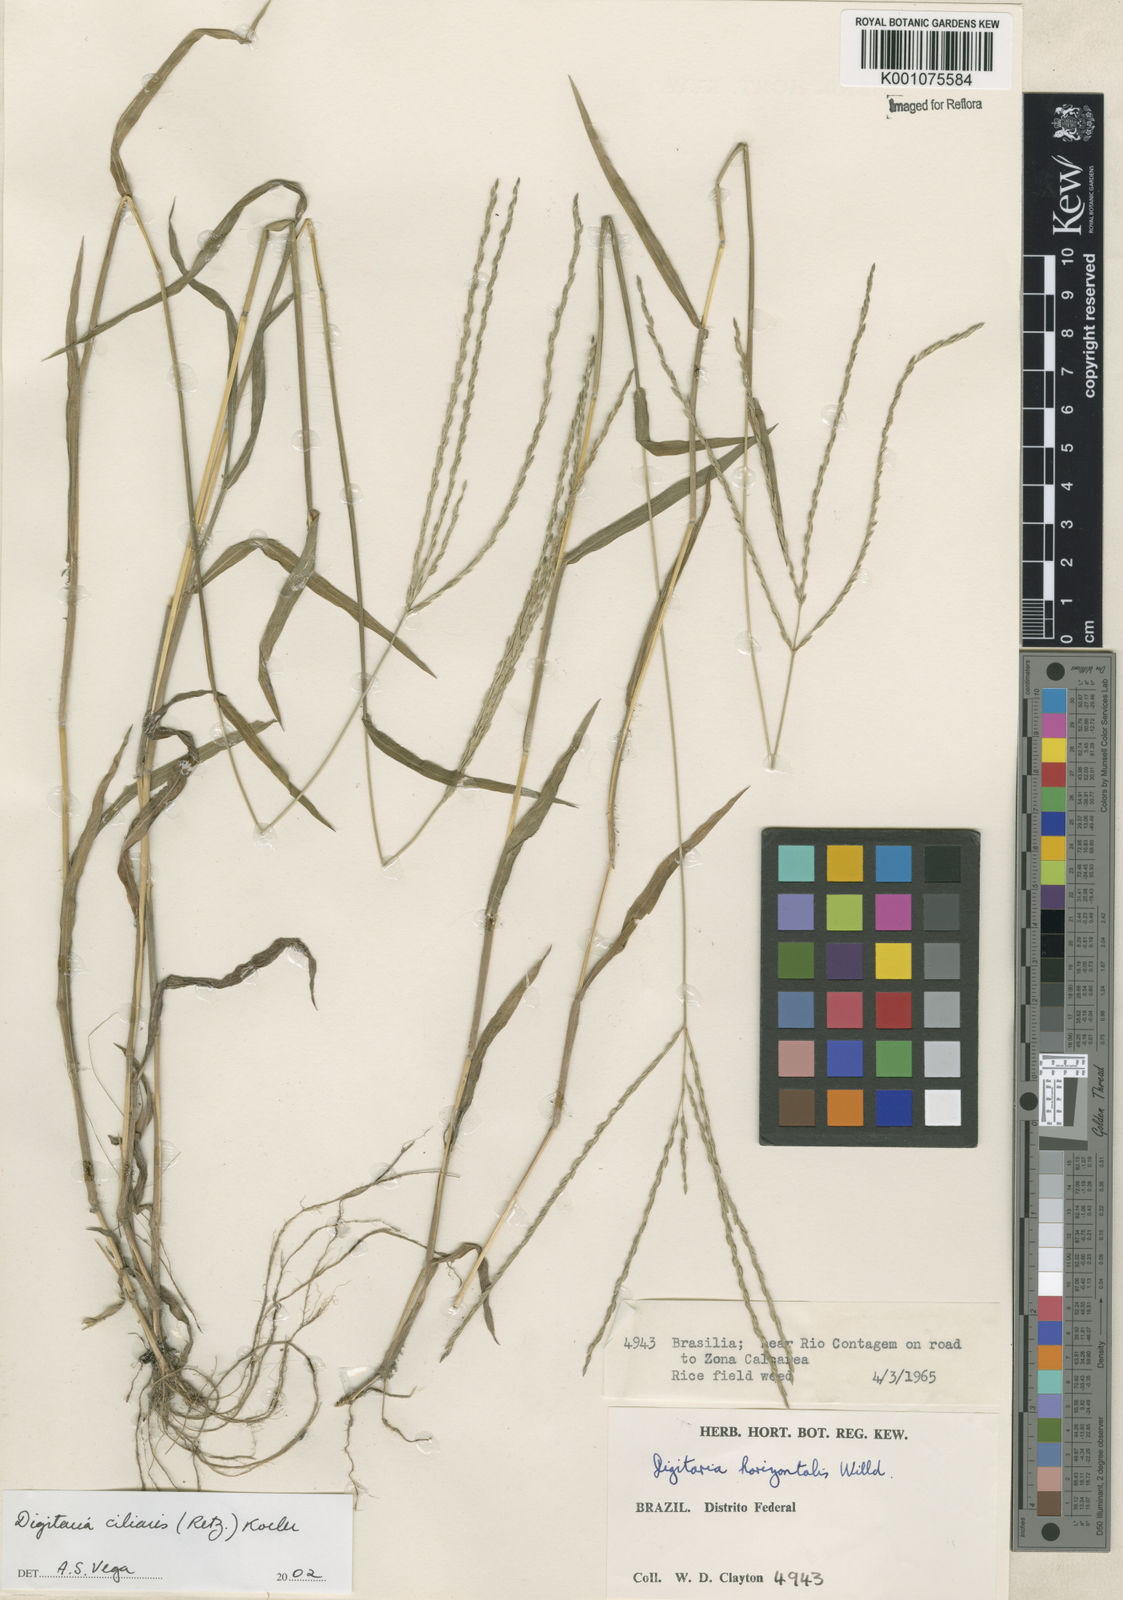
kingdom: Plantae
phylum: Tracheophyta
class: Liliopsida
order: Poales
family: Poaceae
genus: Digitaria
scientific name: Digitaria ciliaris
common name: Tropical finger-grass
